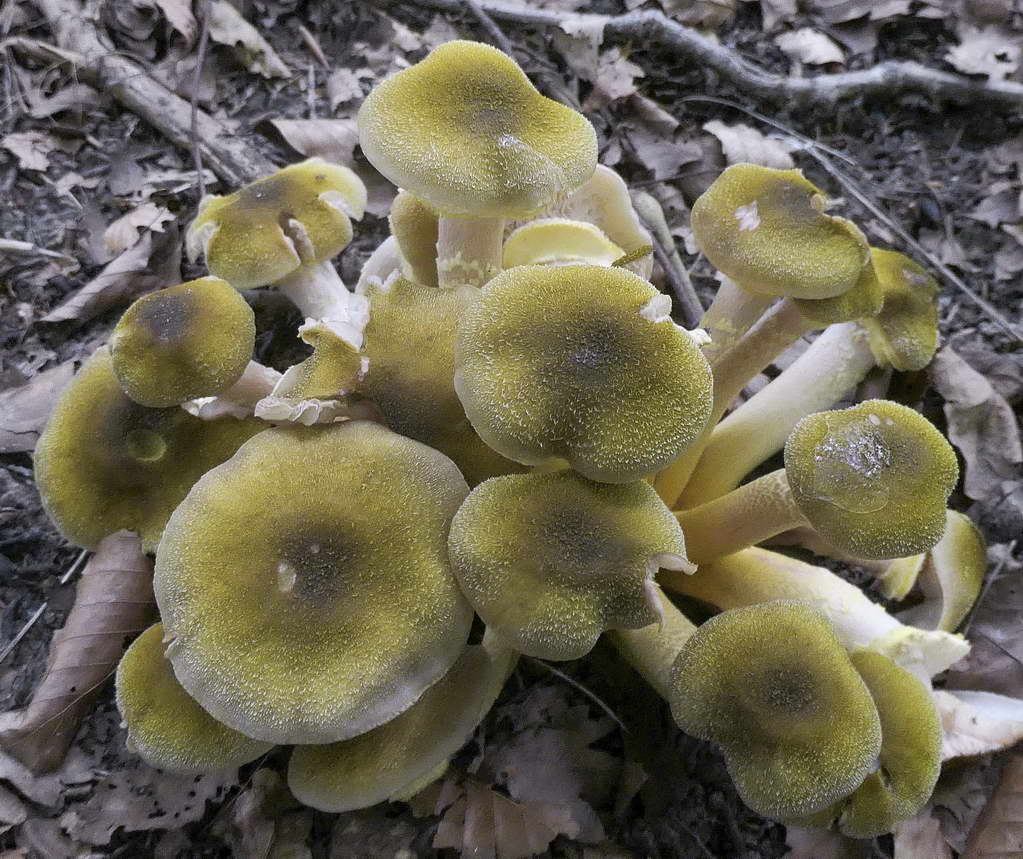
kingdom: Fungi
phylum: Basidiomycota
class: Agaricomycetes
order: Agaricales
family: Physalacriaceae
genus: Armillaria
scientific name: Armillaria mellea
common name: ægte honningsvamp
